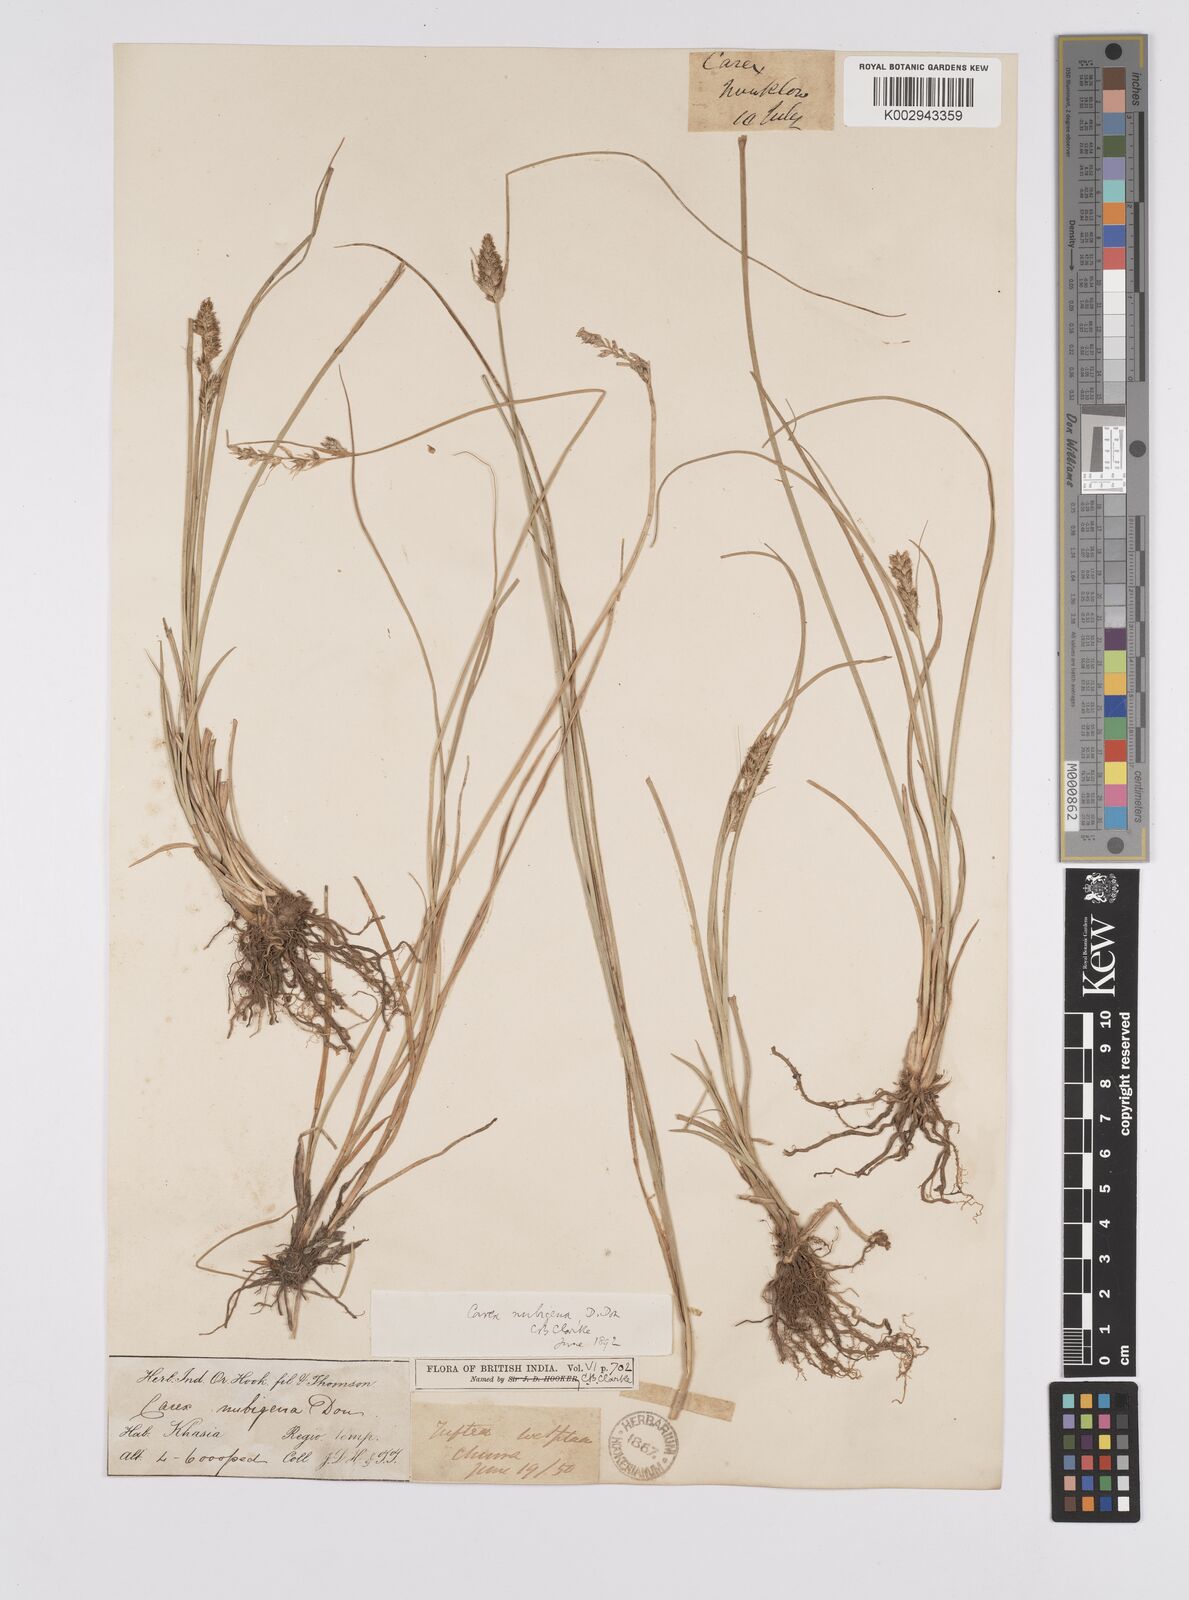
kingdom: Plantae
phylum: Tracheophyta
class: Liliopsida
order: Poales
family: Cyperaceae
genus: Carex
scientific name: Carex nubigena
